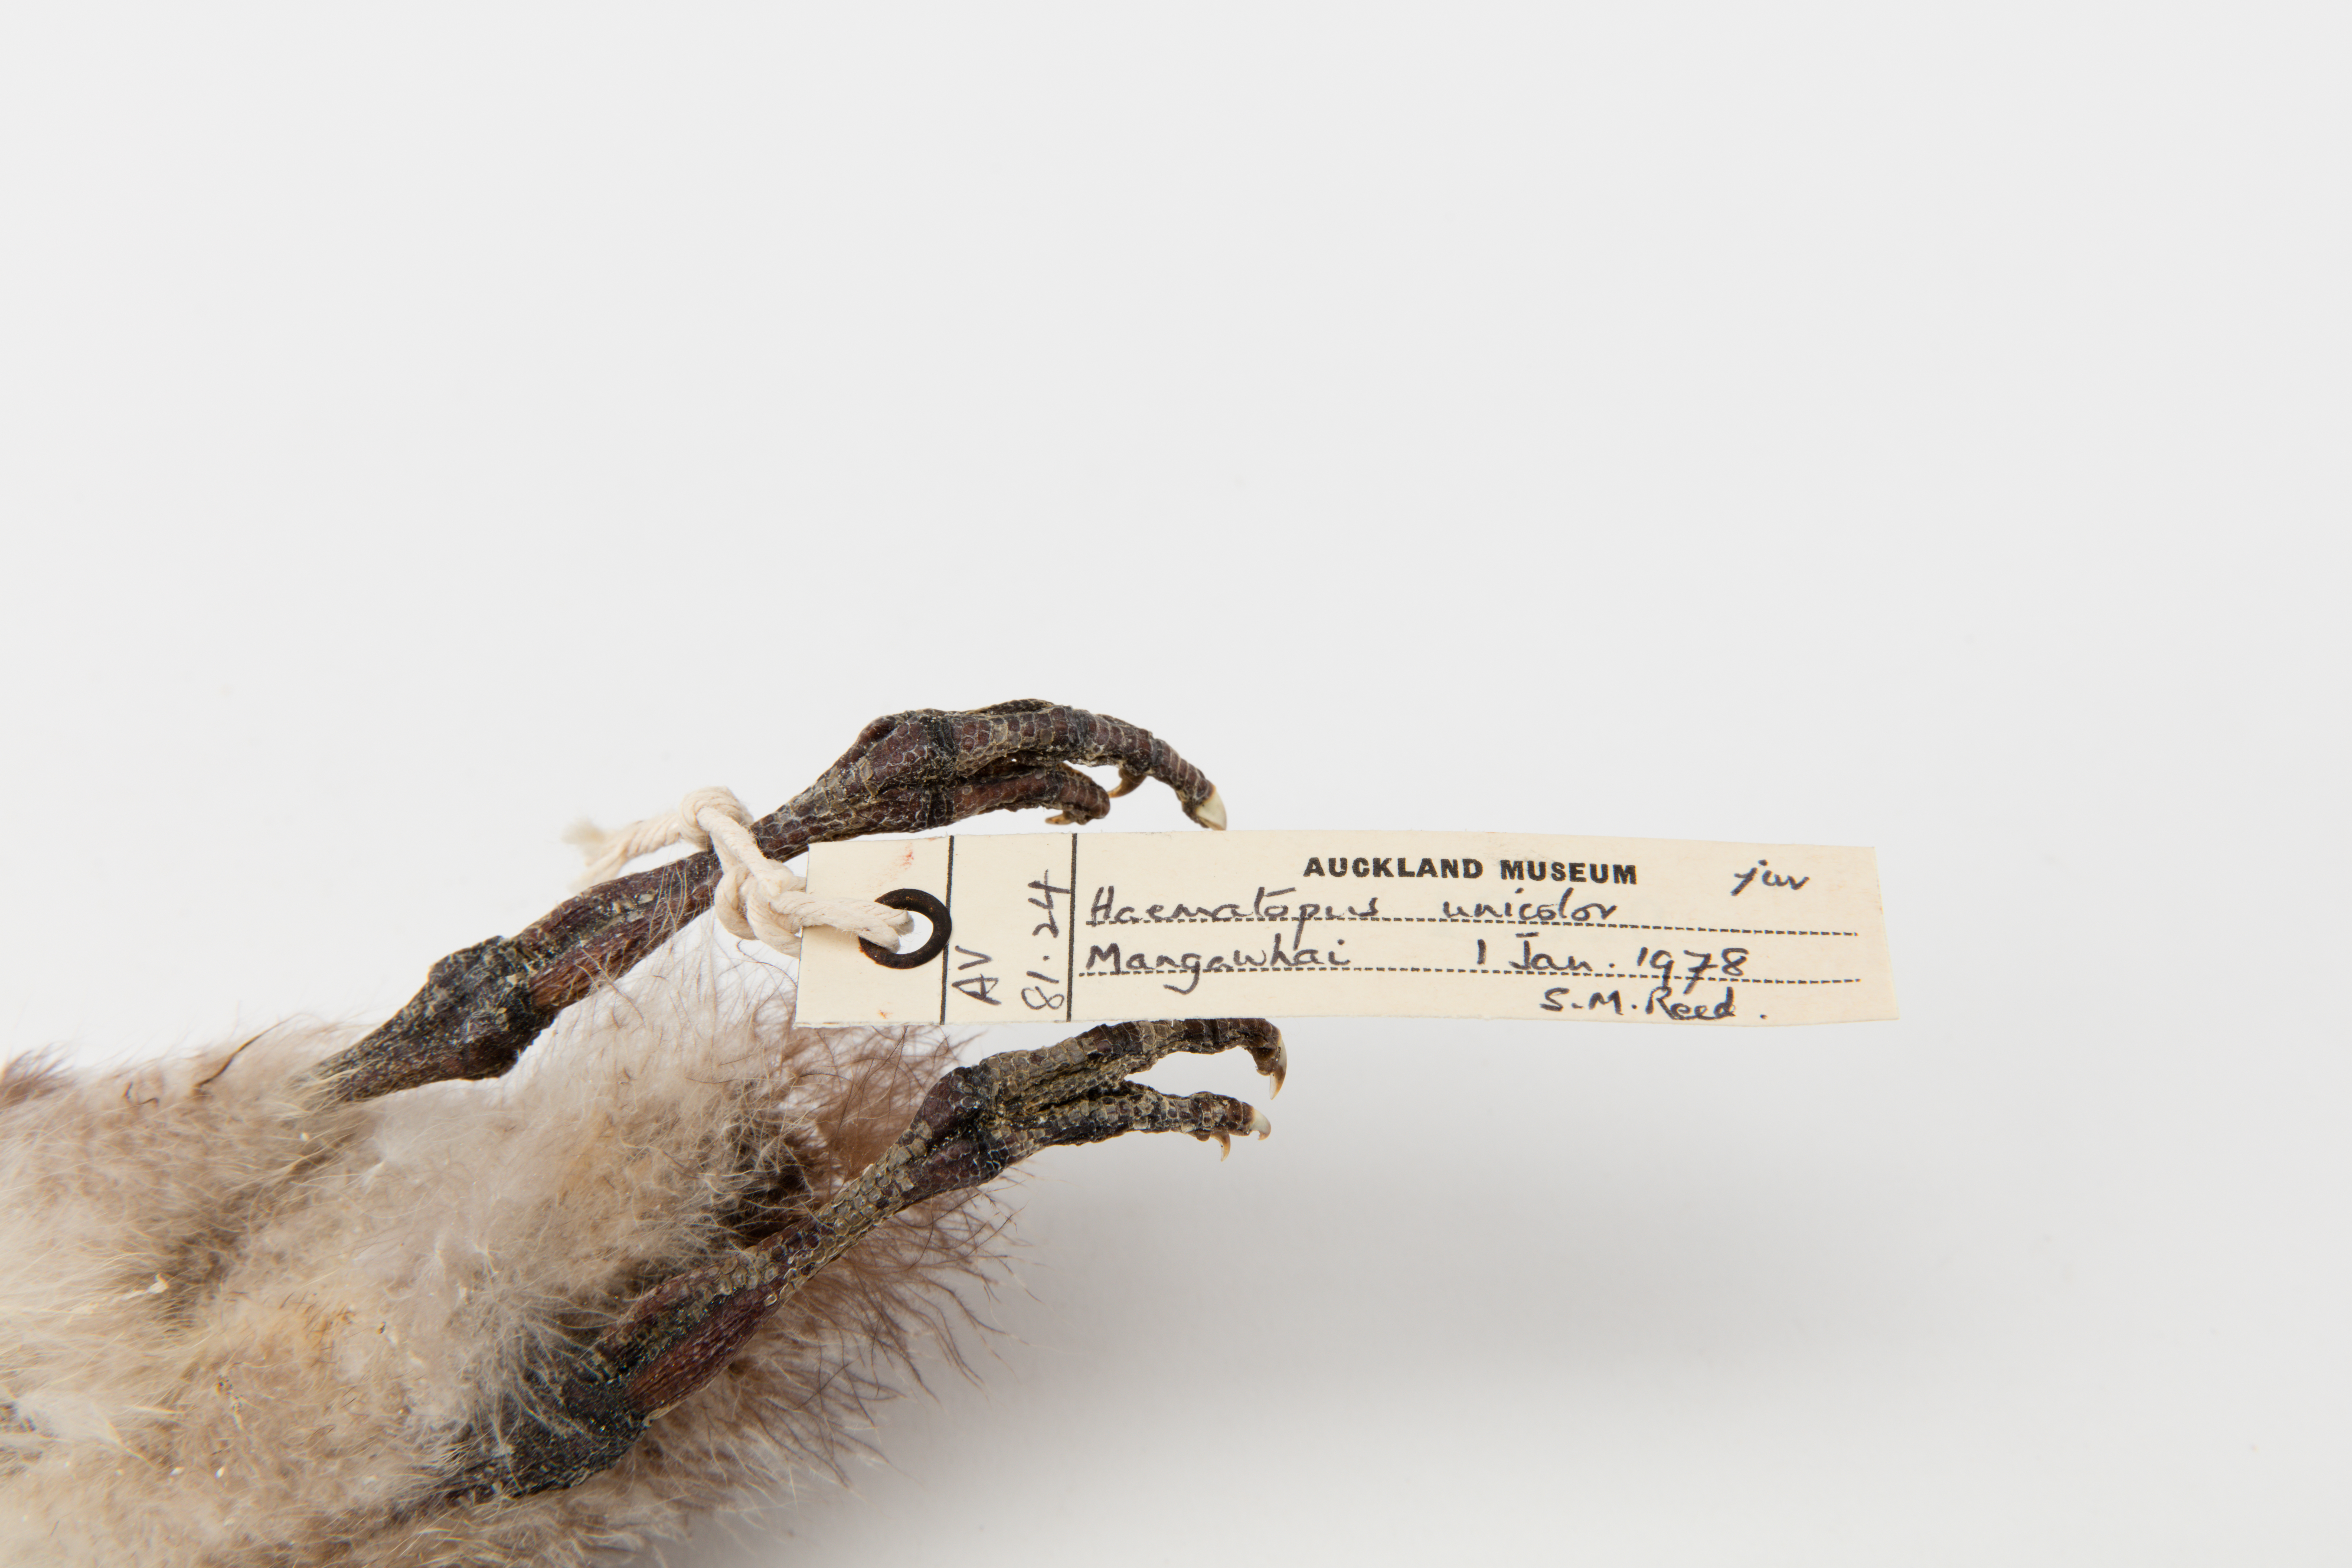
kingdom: Animalia
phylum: Chordata
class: Aves
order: Charadriiformes
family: Haematopodidae
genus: Haematopus
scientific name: Haematopus unicolor
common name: Variable oystercatcher
